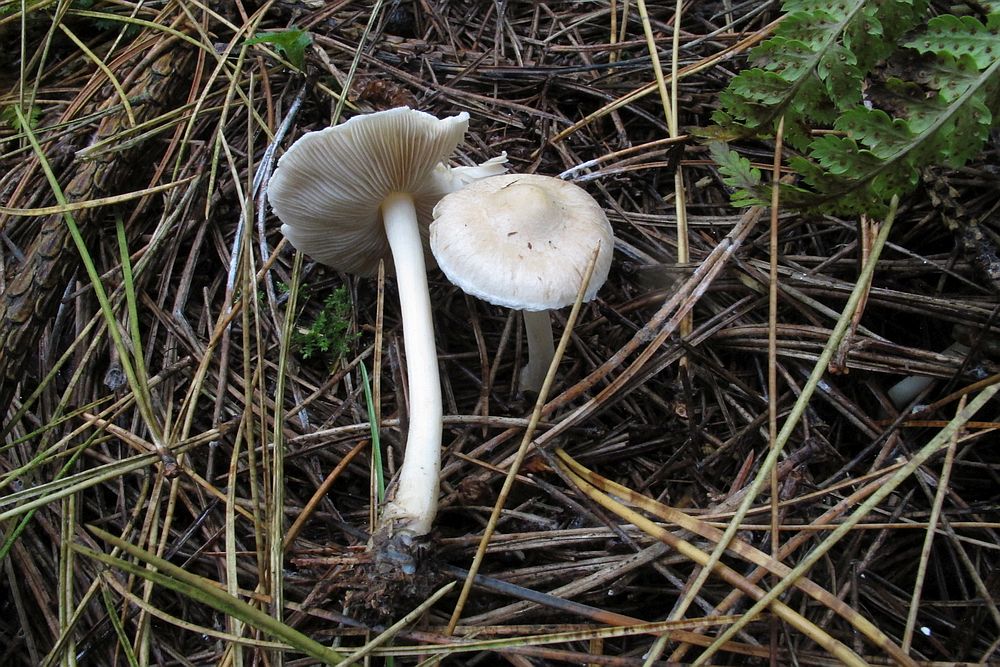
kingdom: Fungi
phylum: Basidiomycota
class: Agaricomycetes
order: Agaricales
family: Inocybaceae
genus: Inocybe
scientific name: Inocybe sindonia
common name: bleg trævlhat
